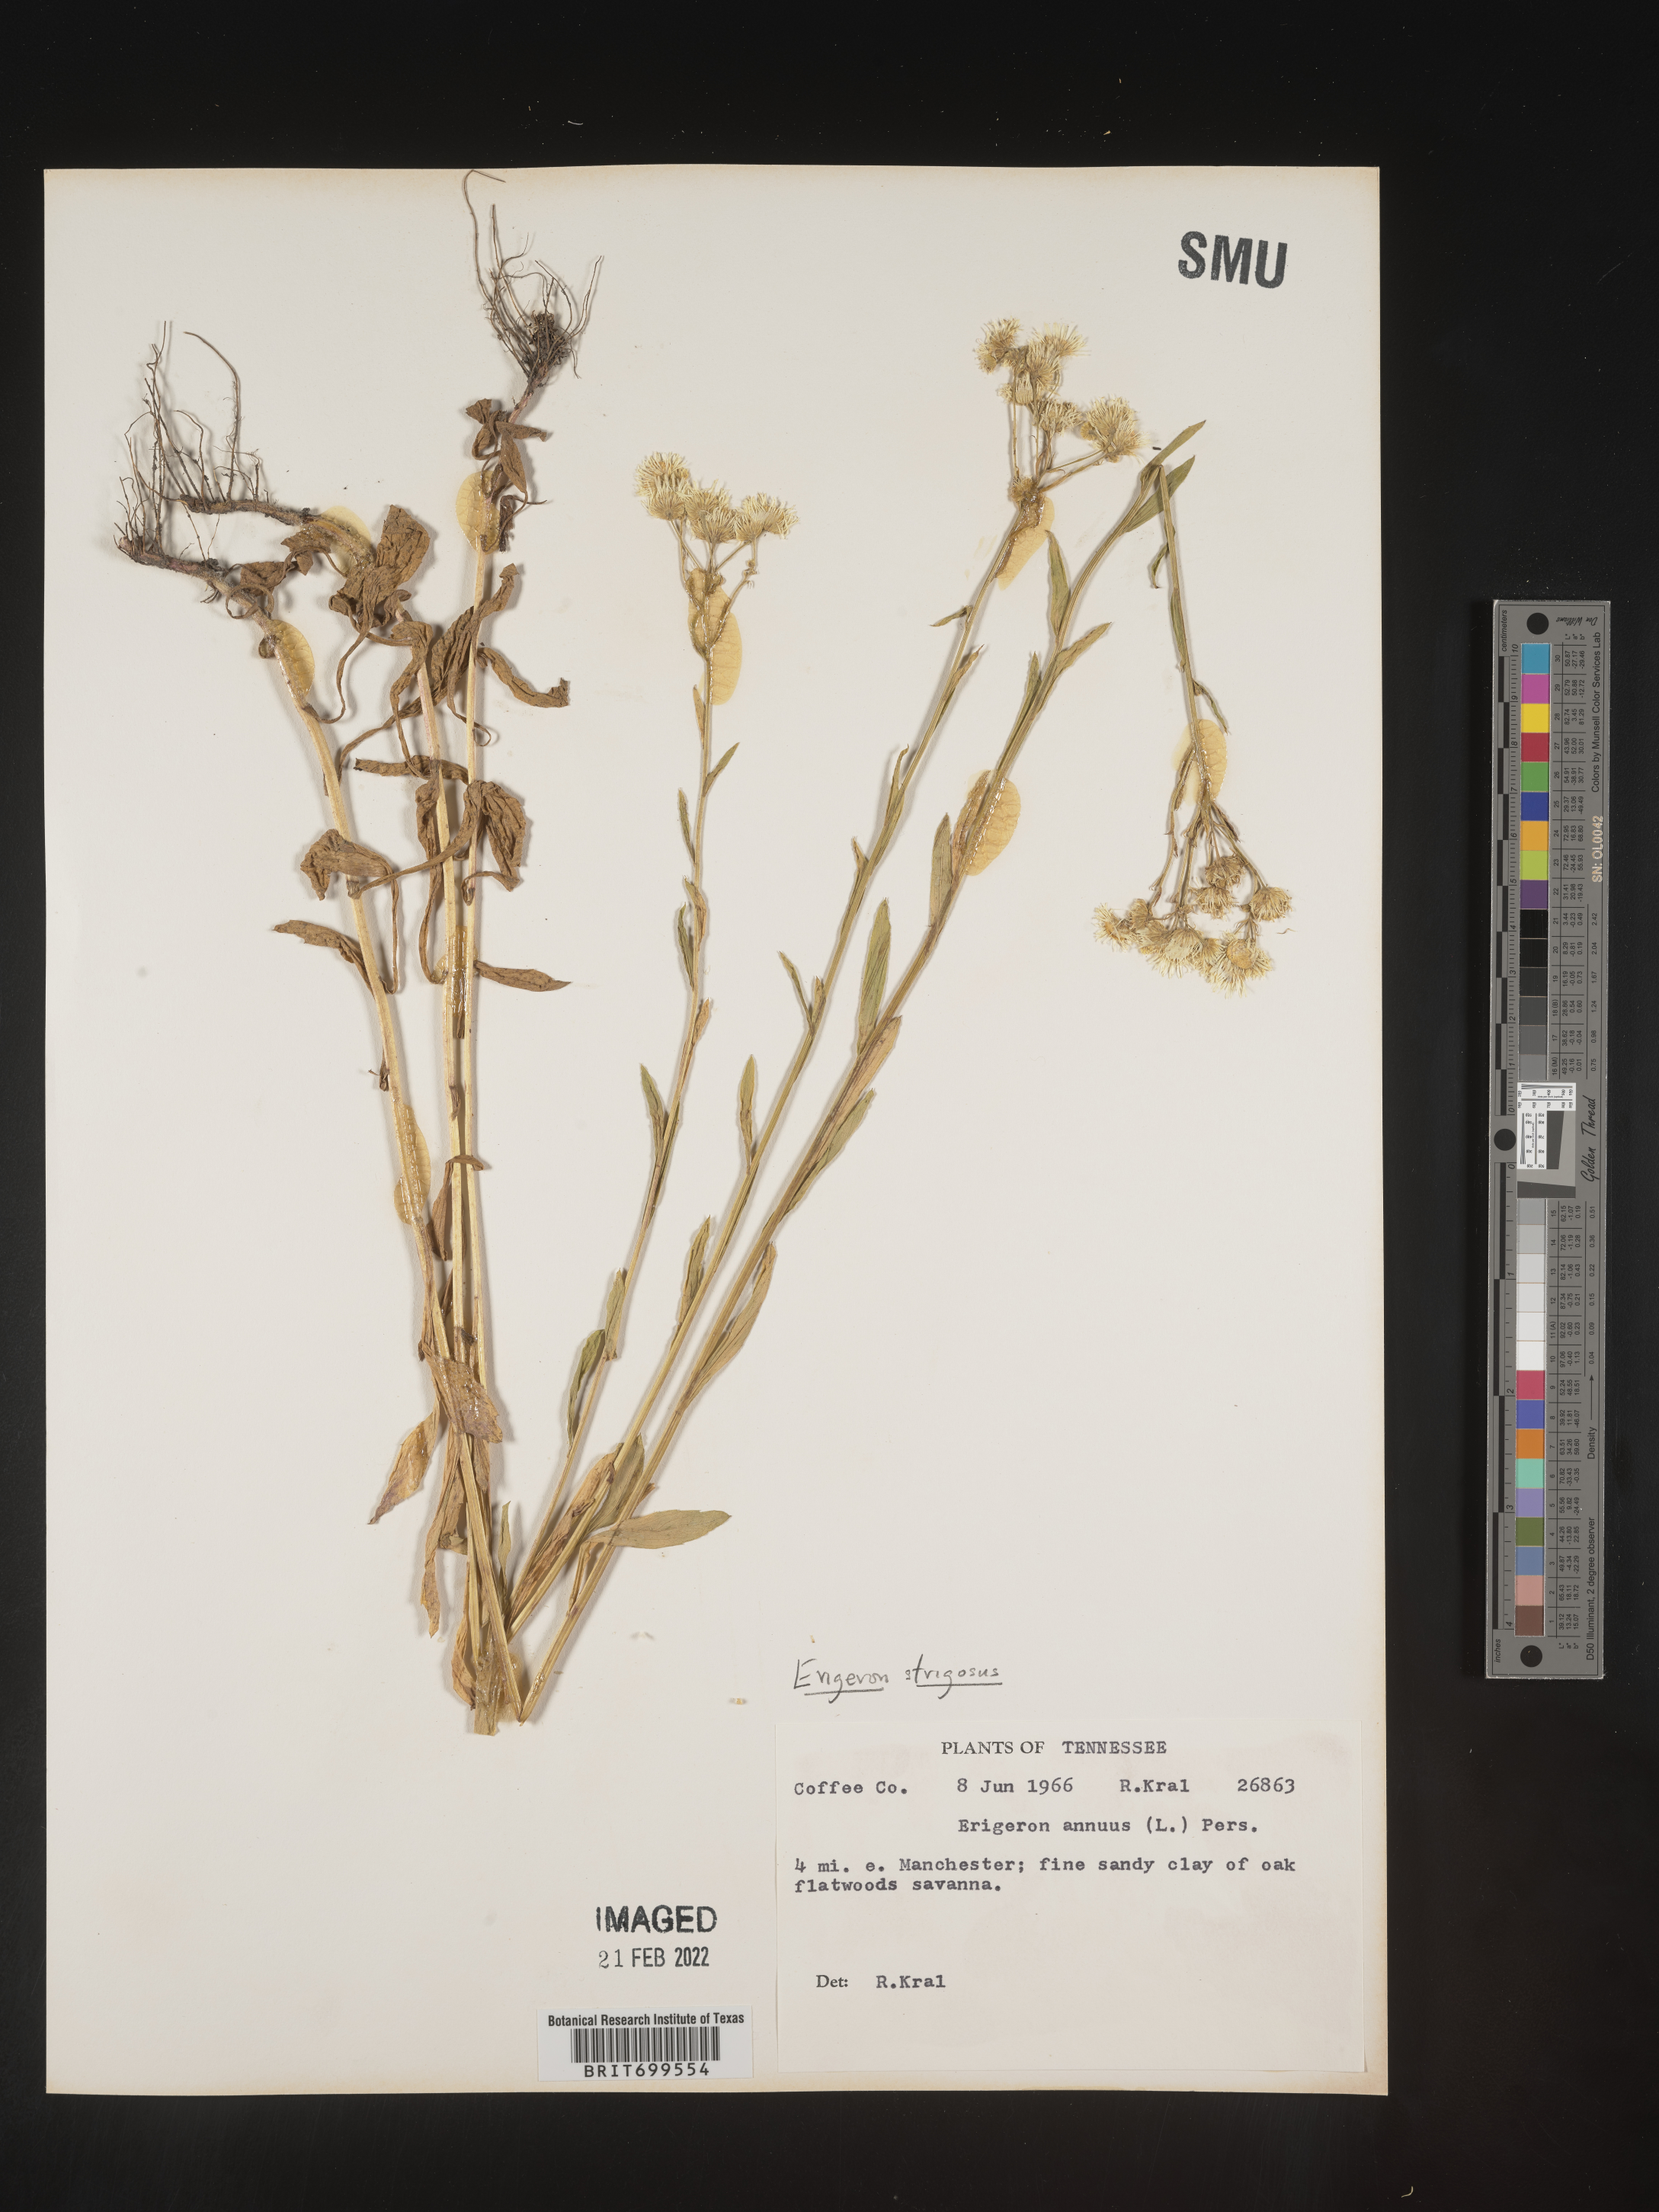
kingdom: Plantae
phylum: Tracheophyta
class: Magnoliopsida
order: Asterales
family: Asteraceae
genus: Erigeron
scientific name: Erigeron strigosus
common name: Common eastern fleabane
